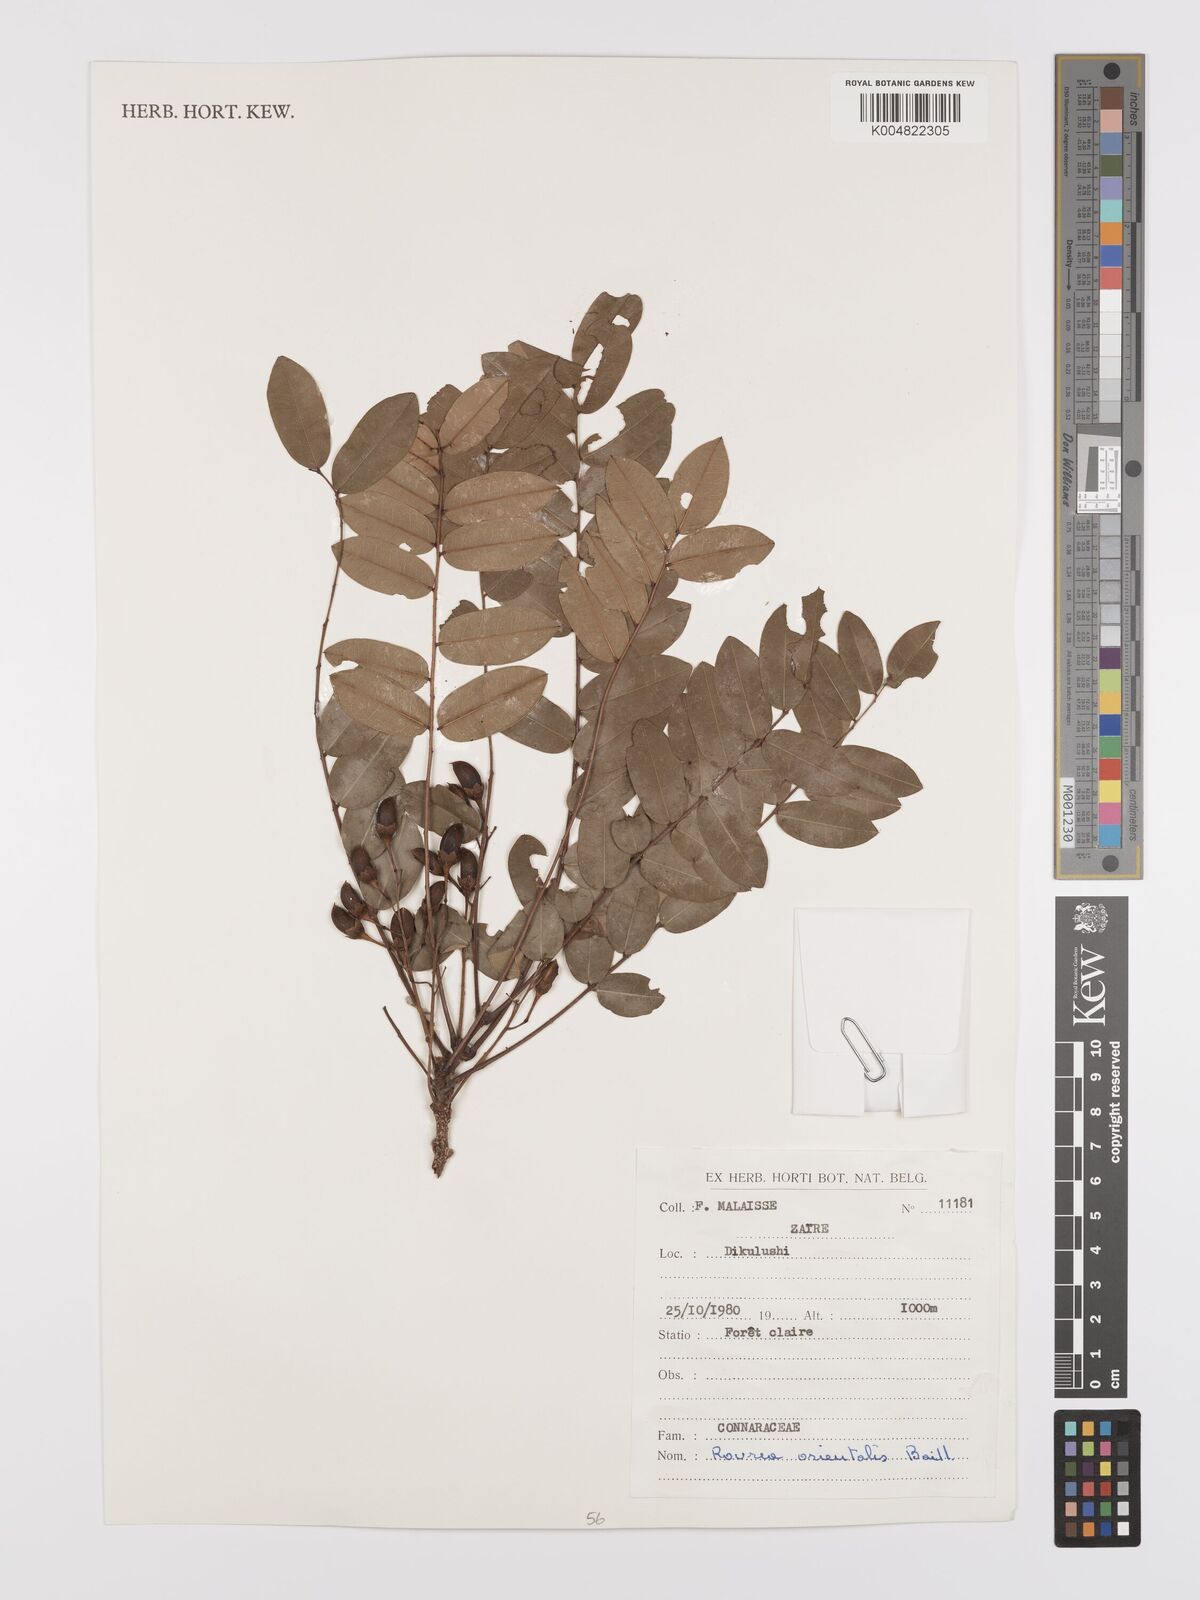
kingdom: Plantae
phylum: Tracheophyta
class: Magnoliopsida
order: Oxalidales
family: Connaraceae
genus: Rourea
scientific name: Rourea orientalis
